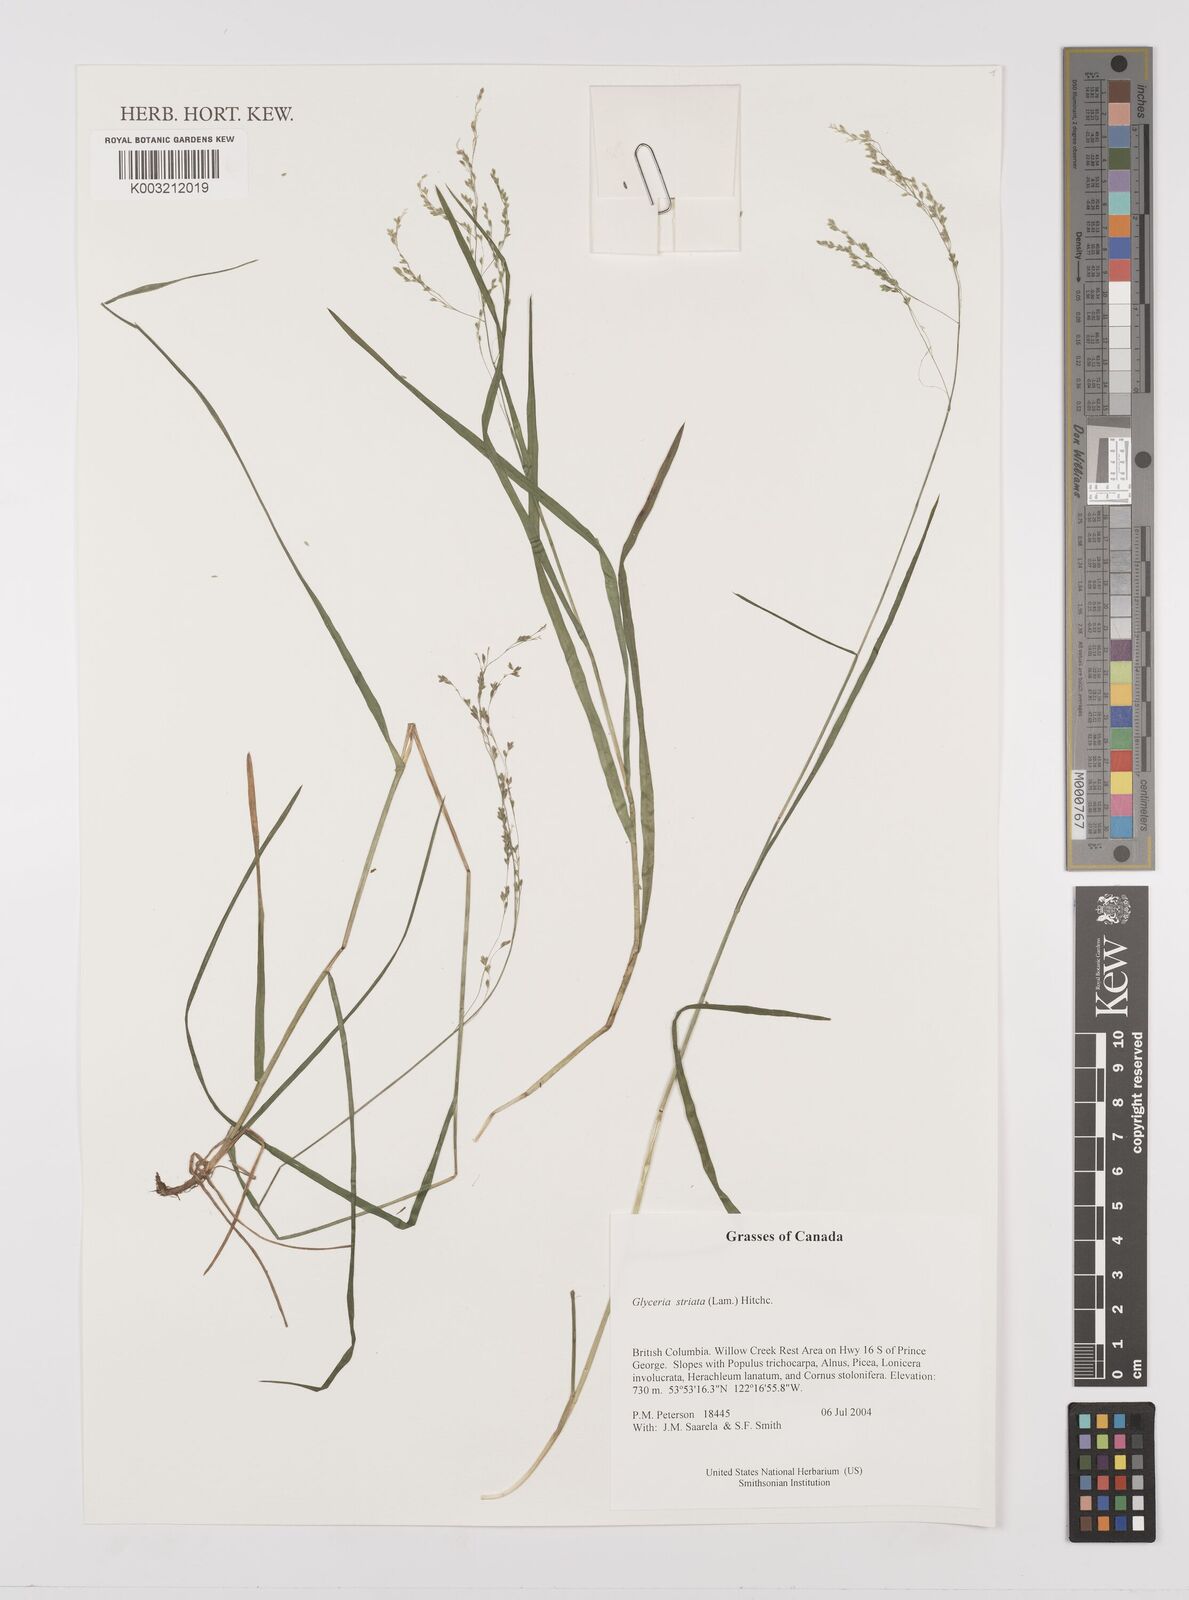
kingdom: Plantae
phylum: Tracheophyta
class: Liliopsida
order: Poales
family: Poaceae
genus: Glyceria
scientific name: Glyceria striata
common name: Fowl manna grass
